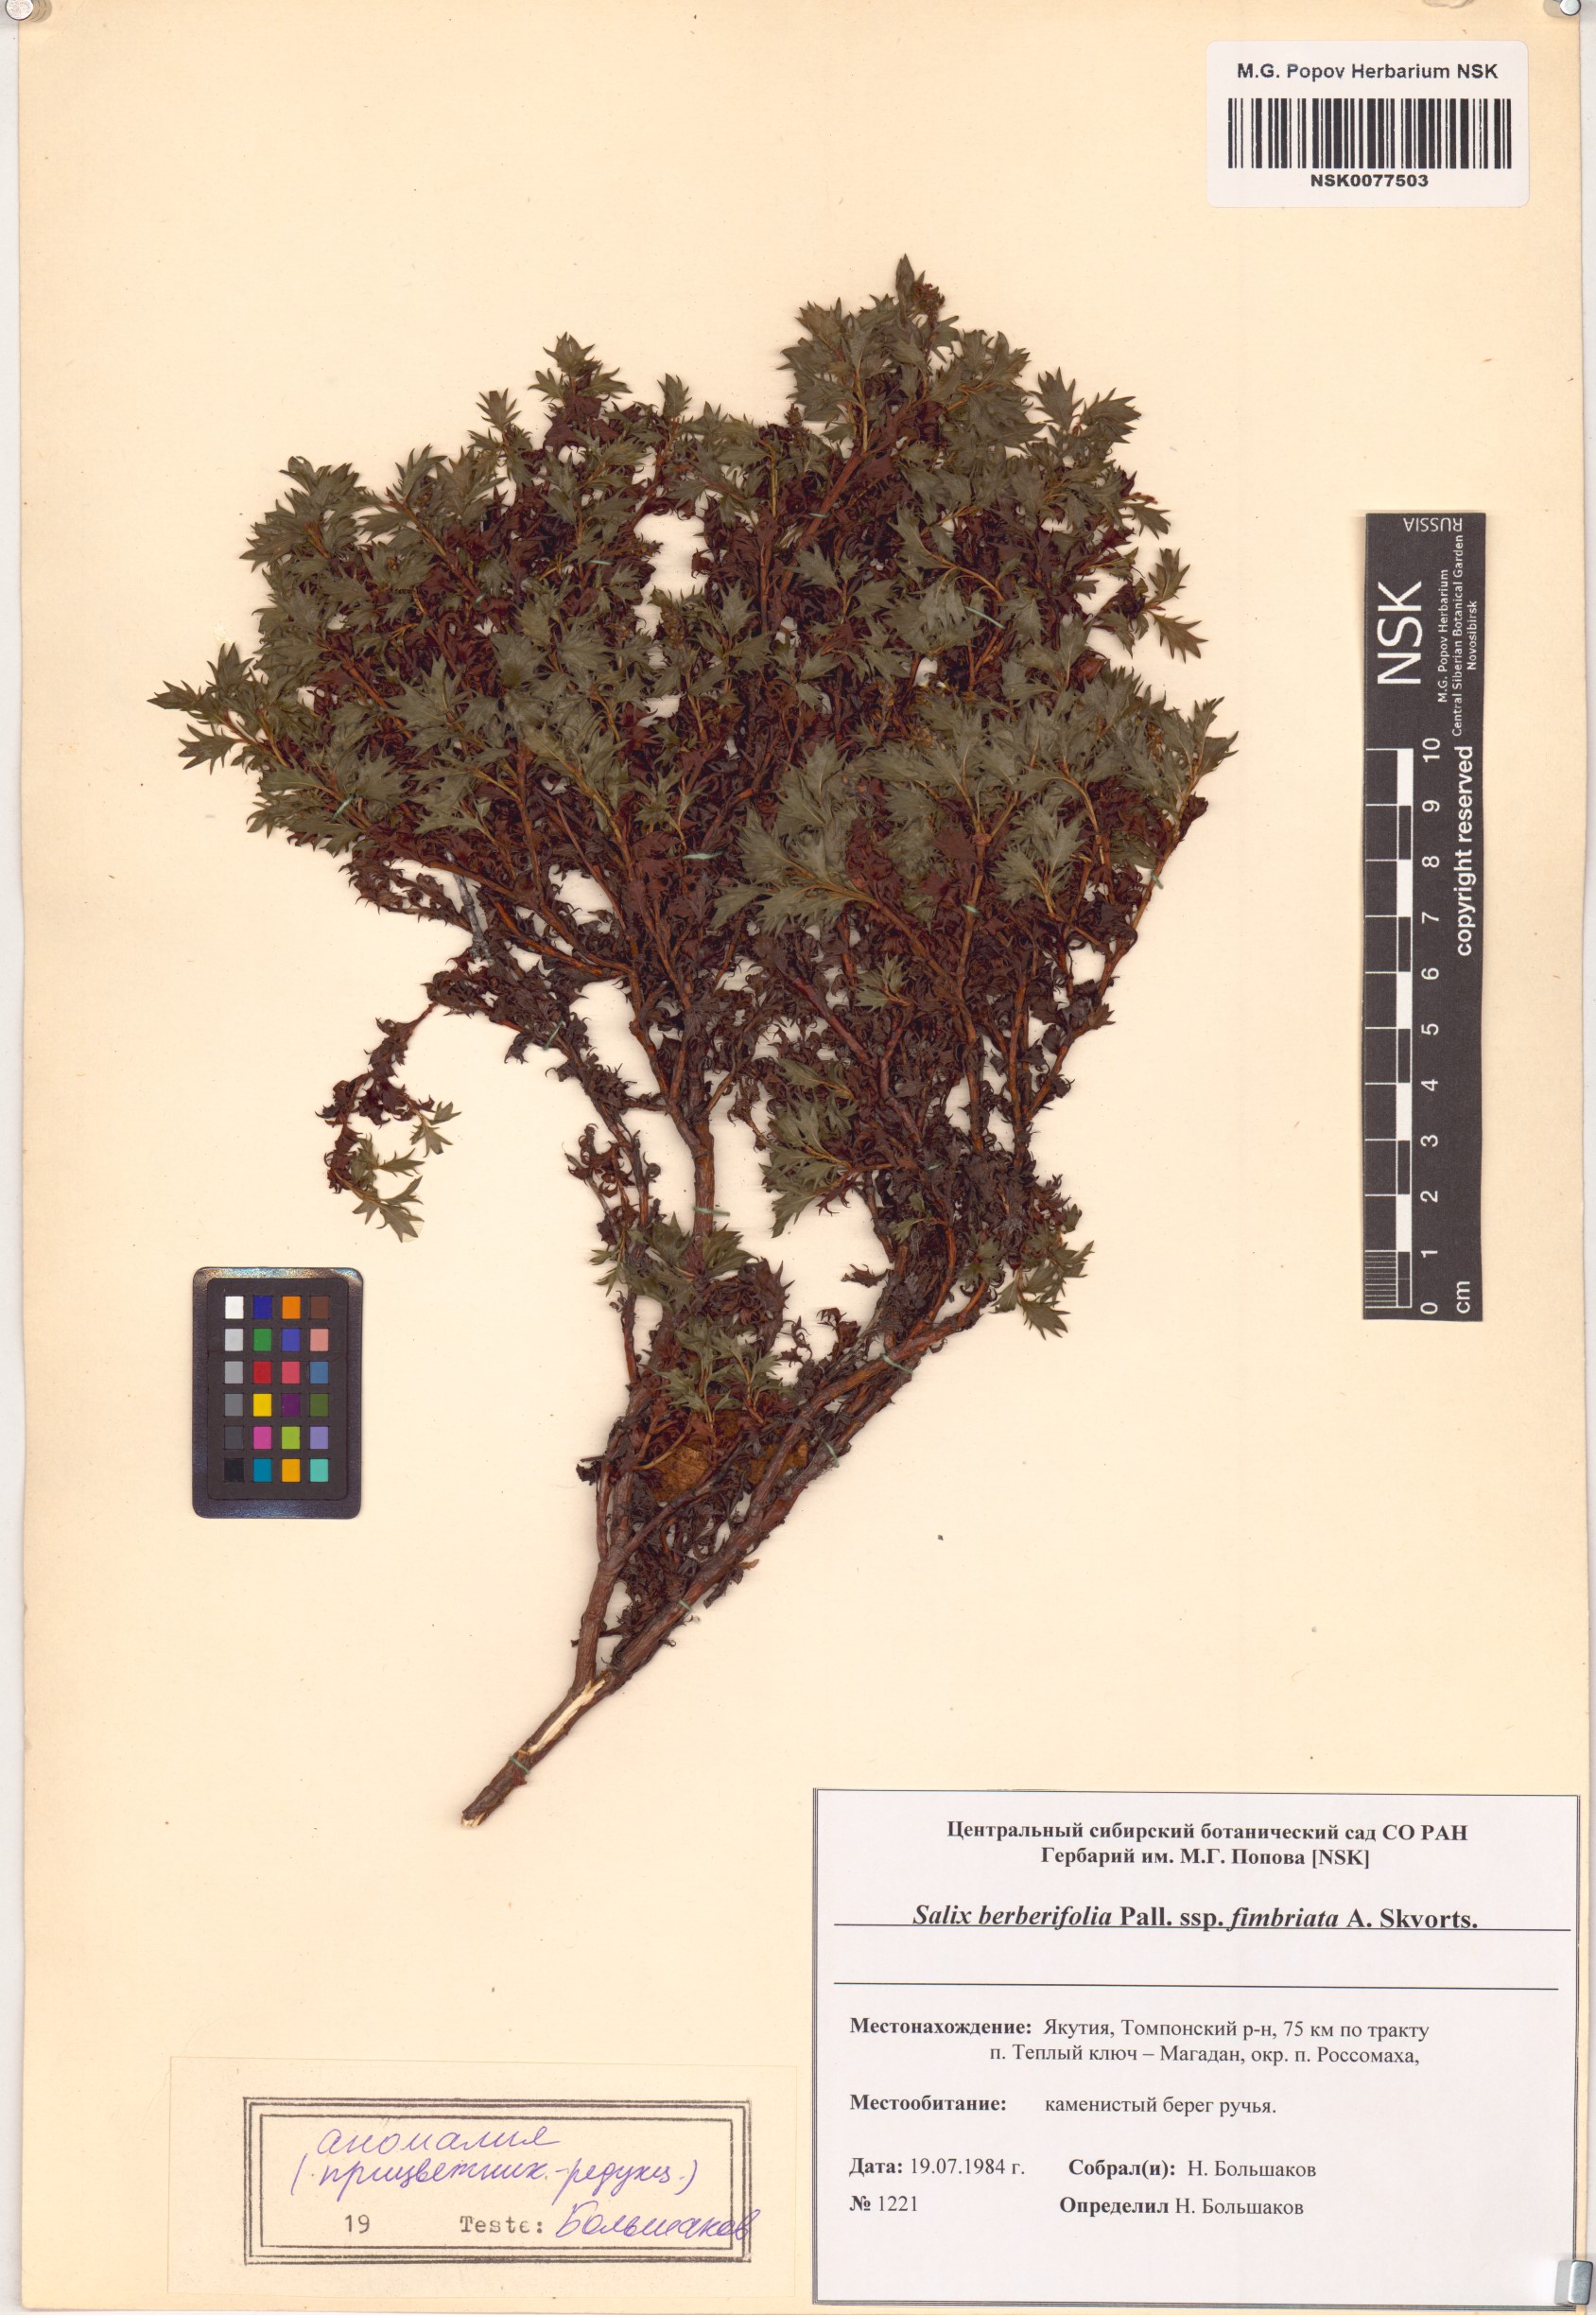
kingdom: Plantae
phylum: Tracheophyta
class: Magnoliopsida
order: Malpighiales
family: Salicaceae
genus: Salix
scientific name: Salix berberifolia
